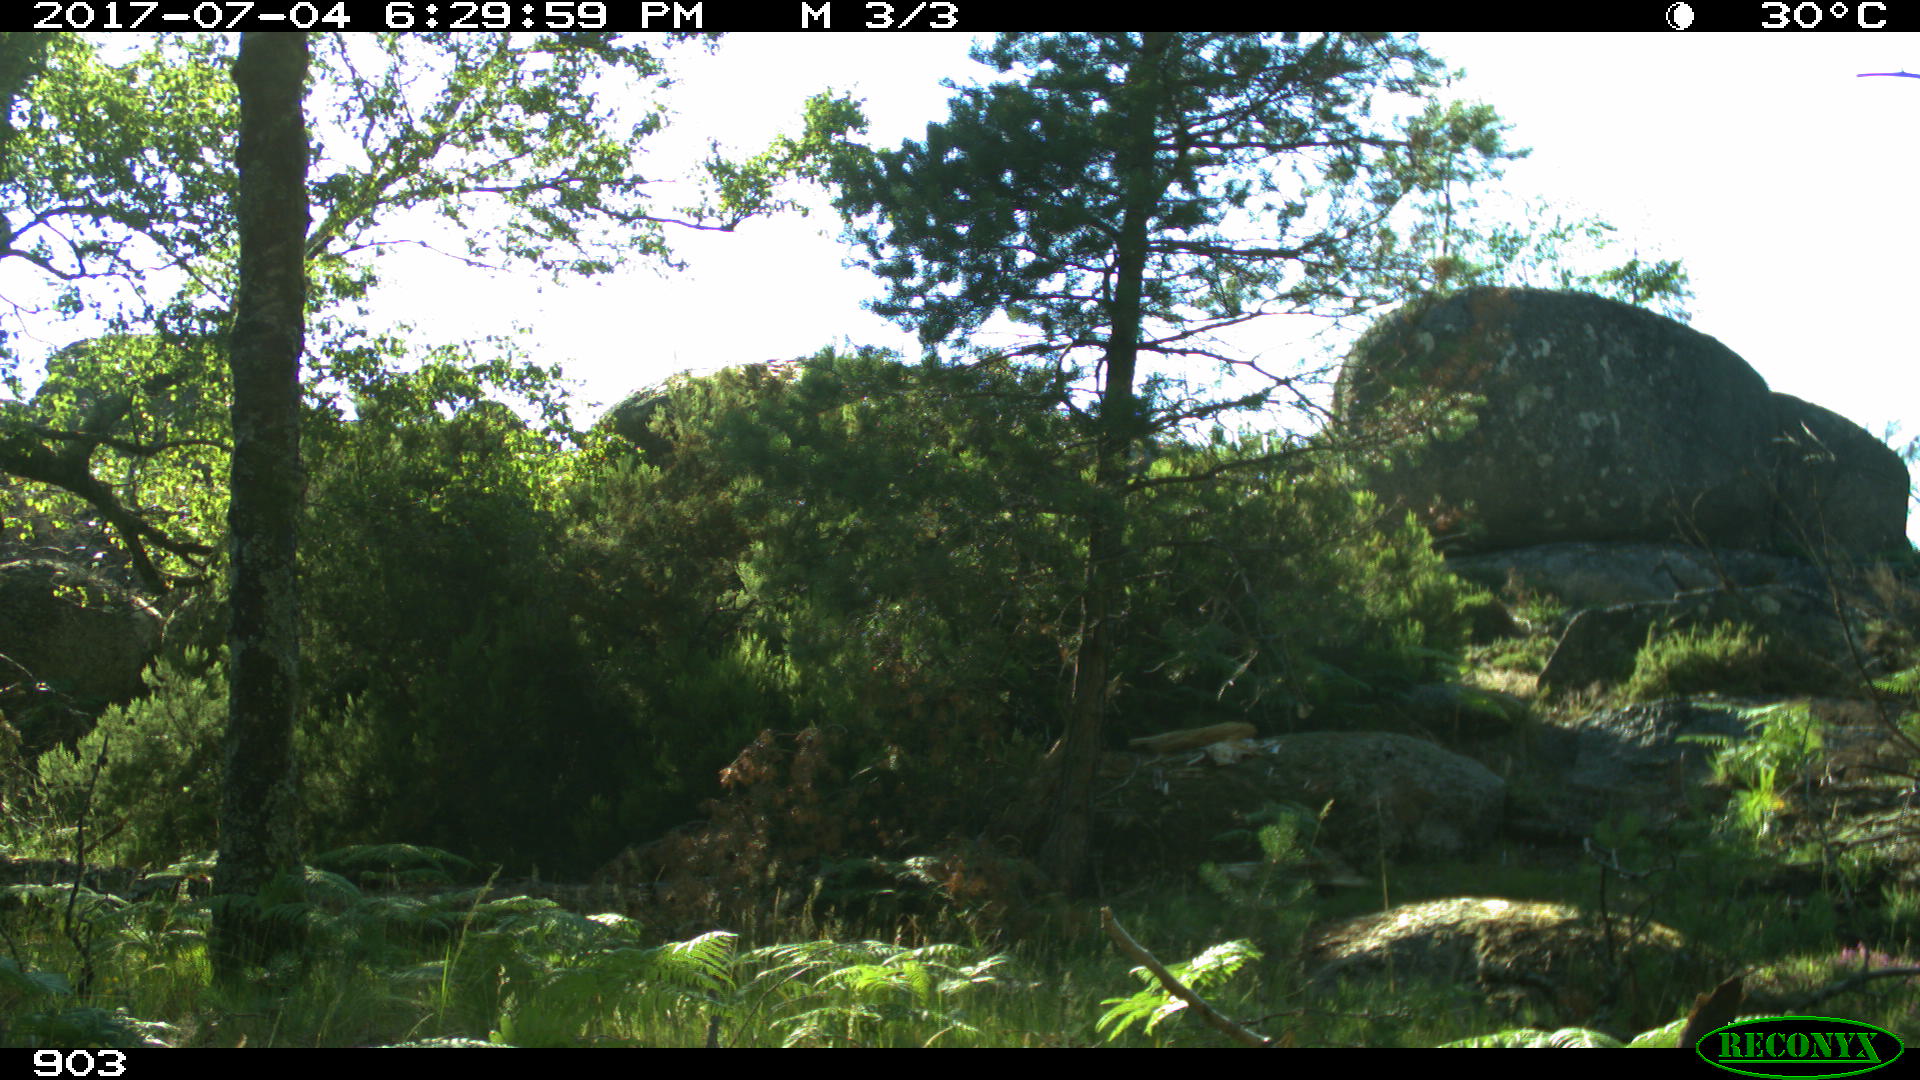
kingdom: Animalia
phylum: Chordata
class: Mammalia
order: Perissodactyla
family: Equidae
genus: Equus
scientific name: Equus caballus
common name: Horse
